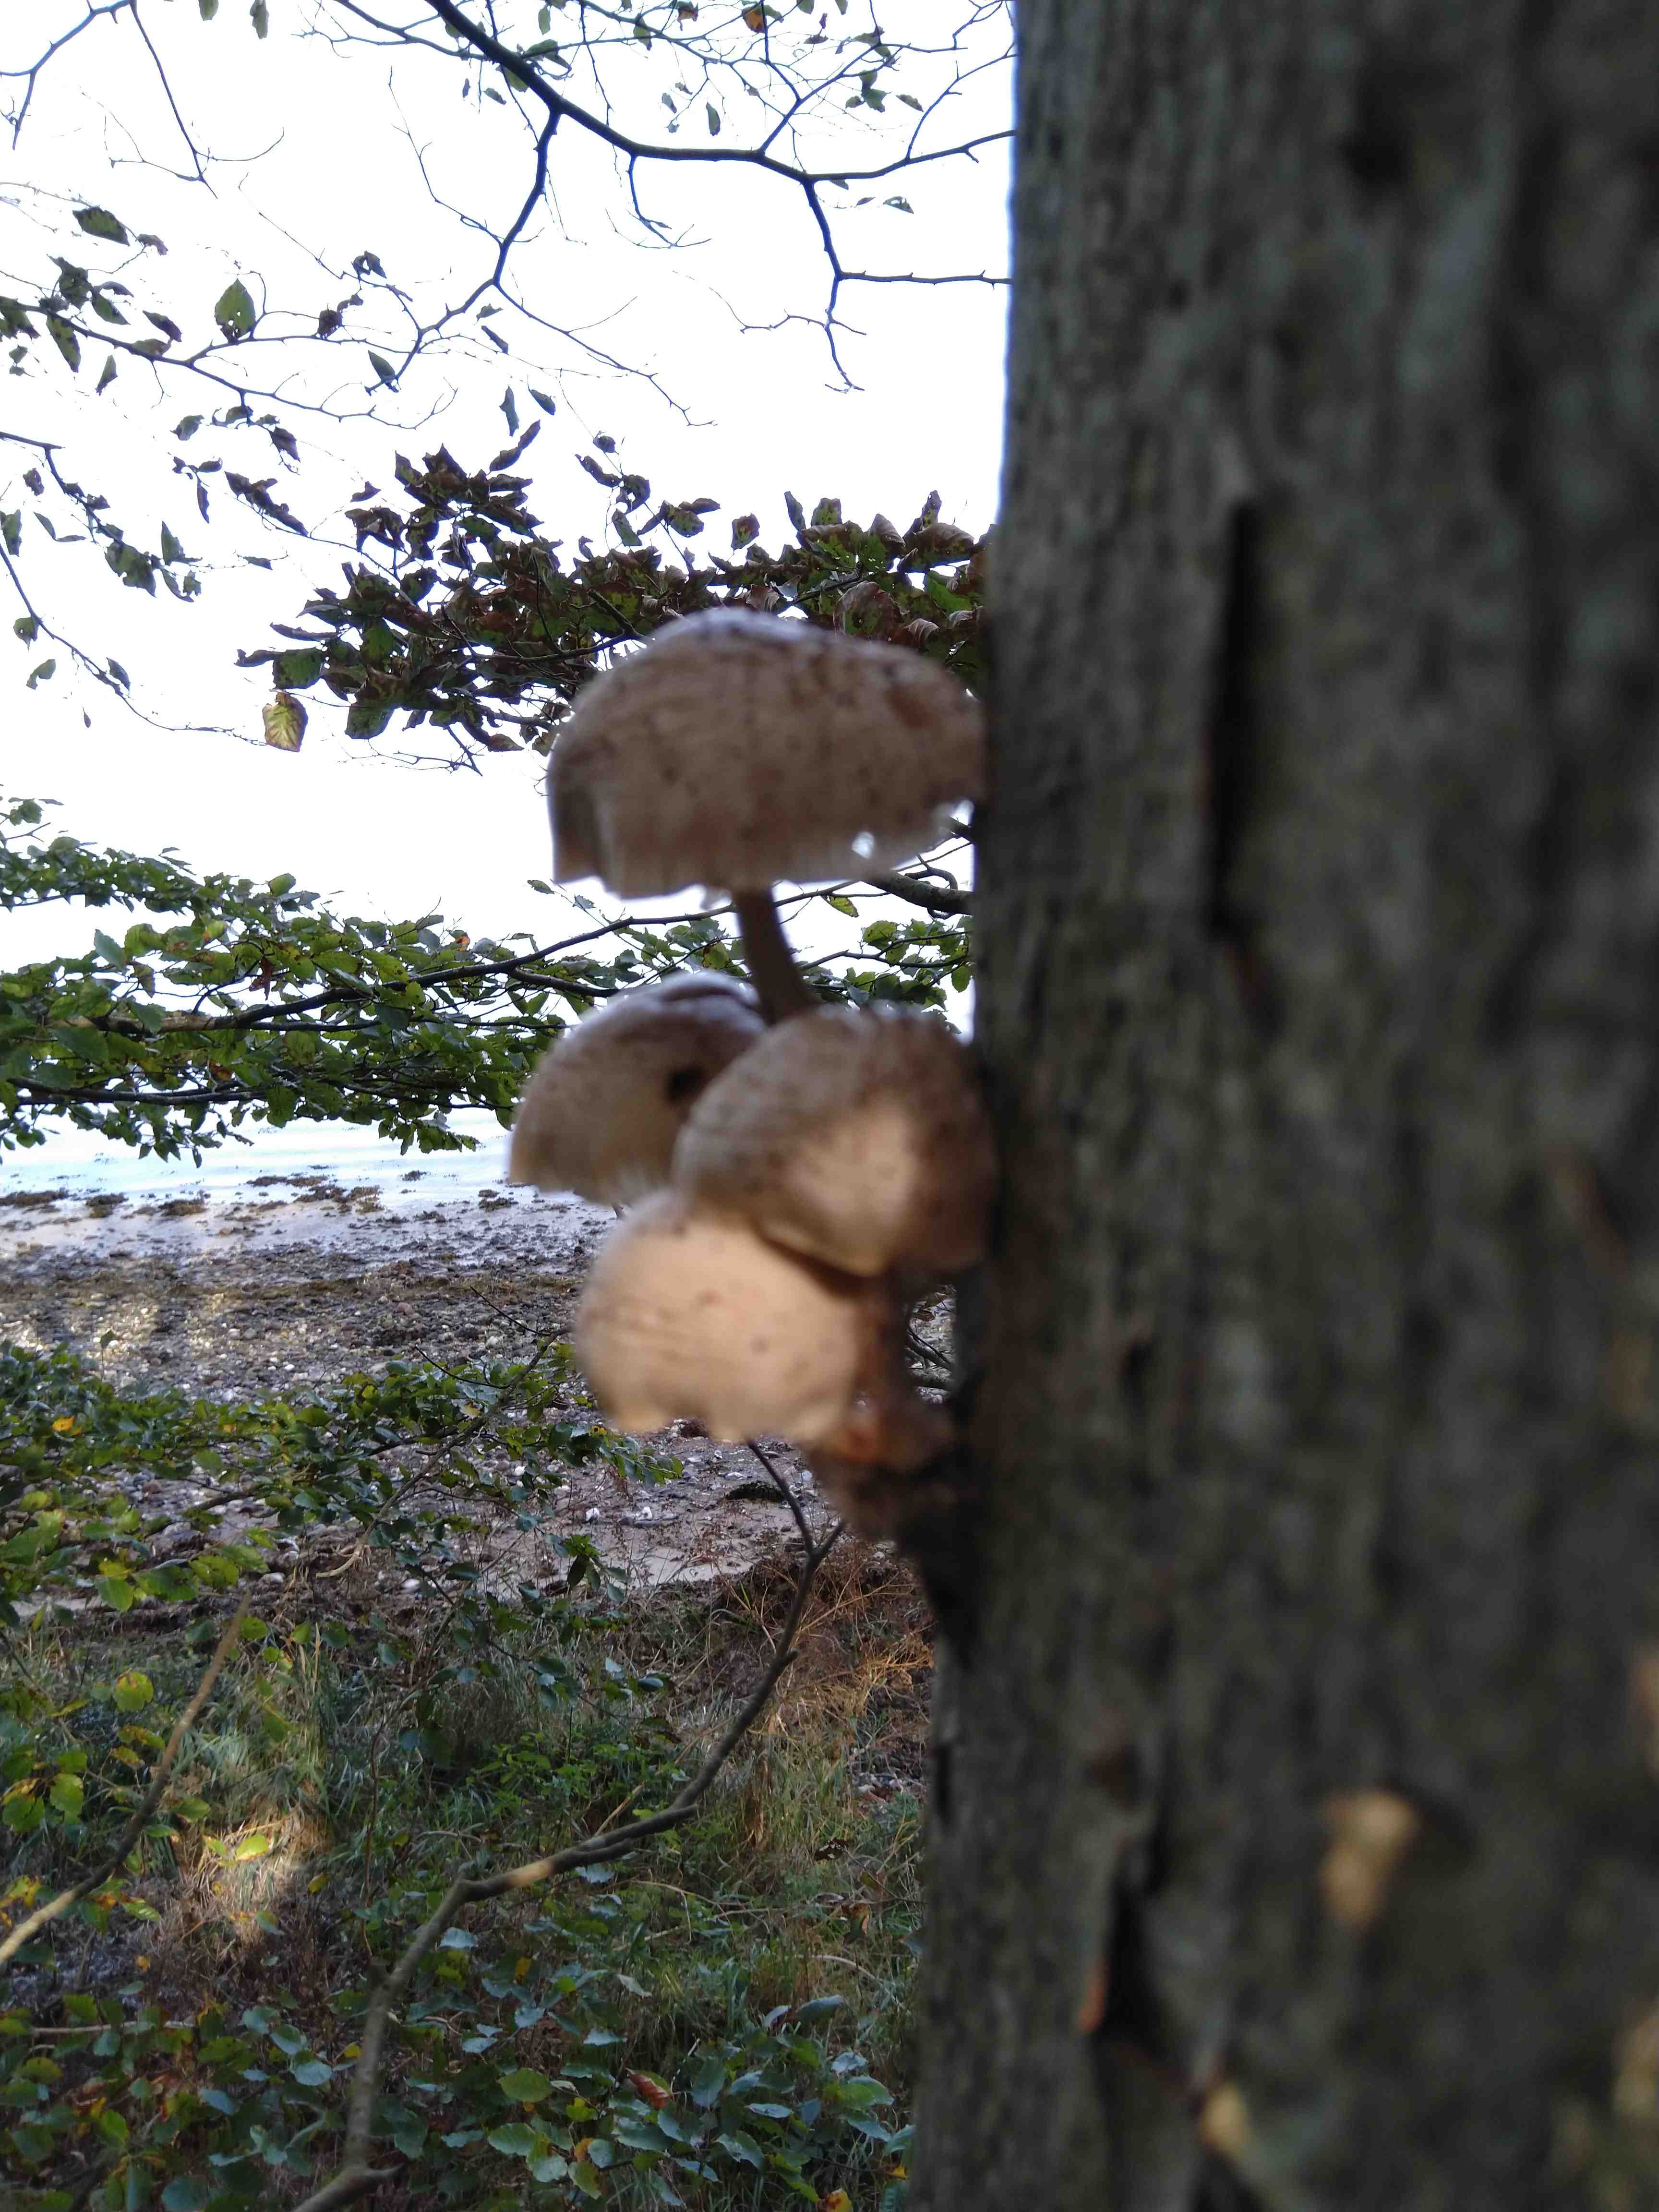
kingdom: Fungi
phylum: Basidiomycota
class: Agaricomycetes
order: Agaricales
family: Physalacriaceae
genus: Mucidula
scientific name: Mucidula mucida
